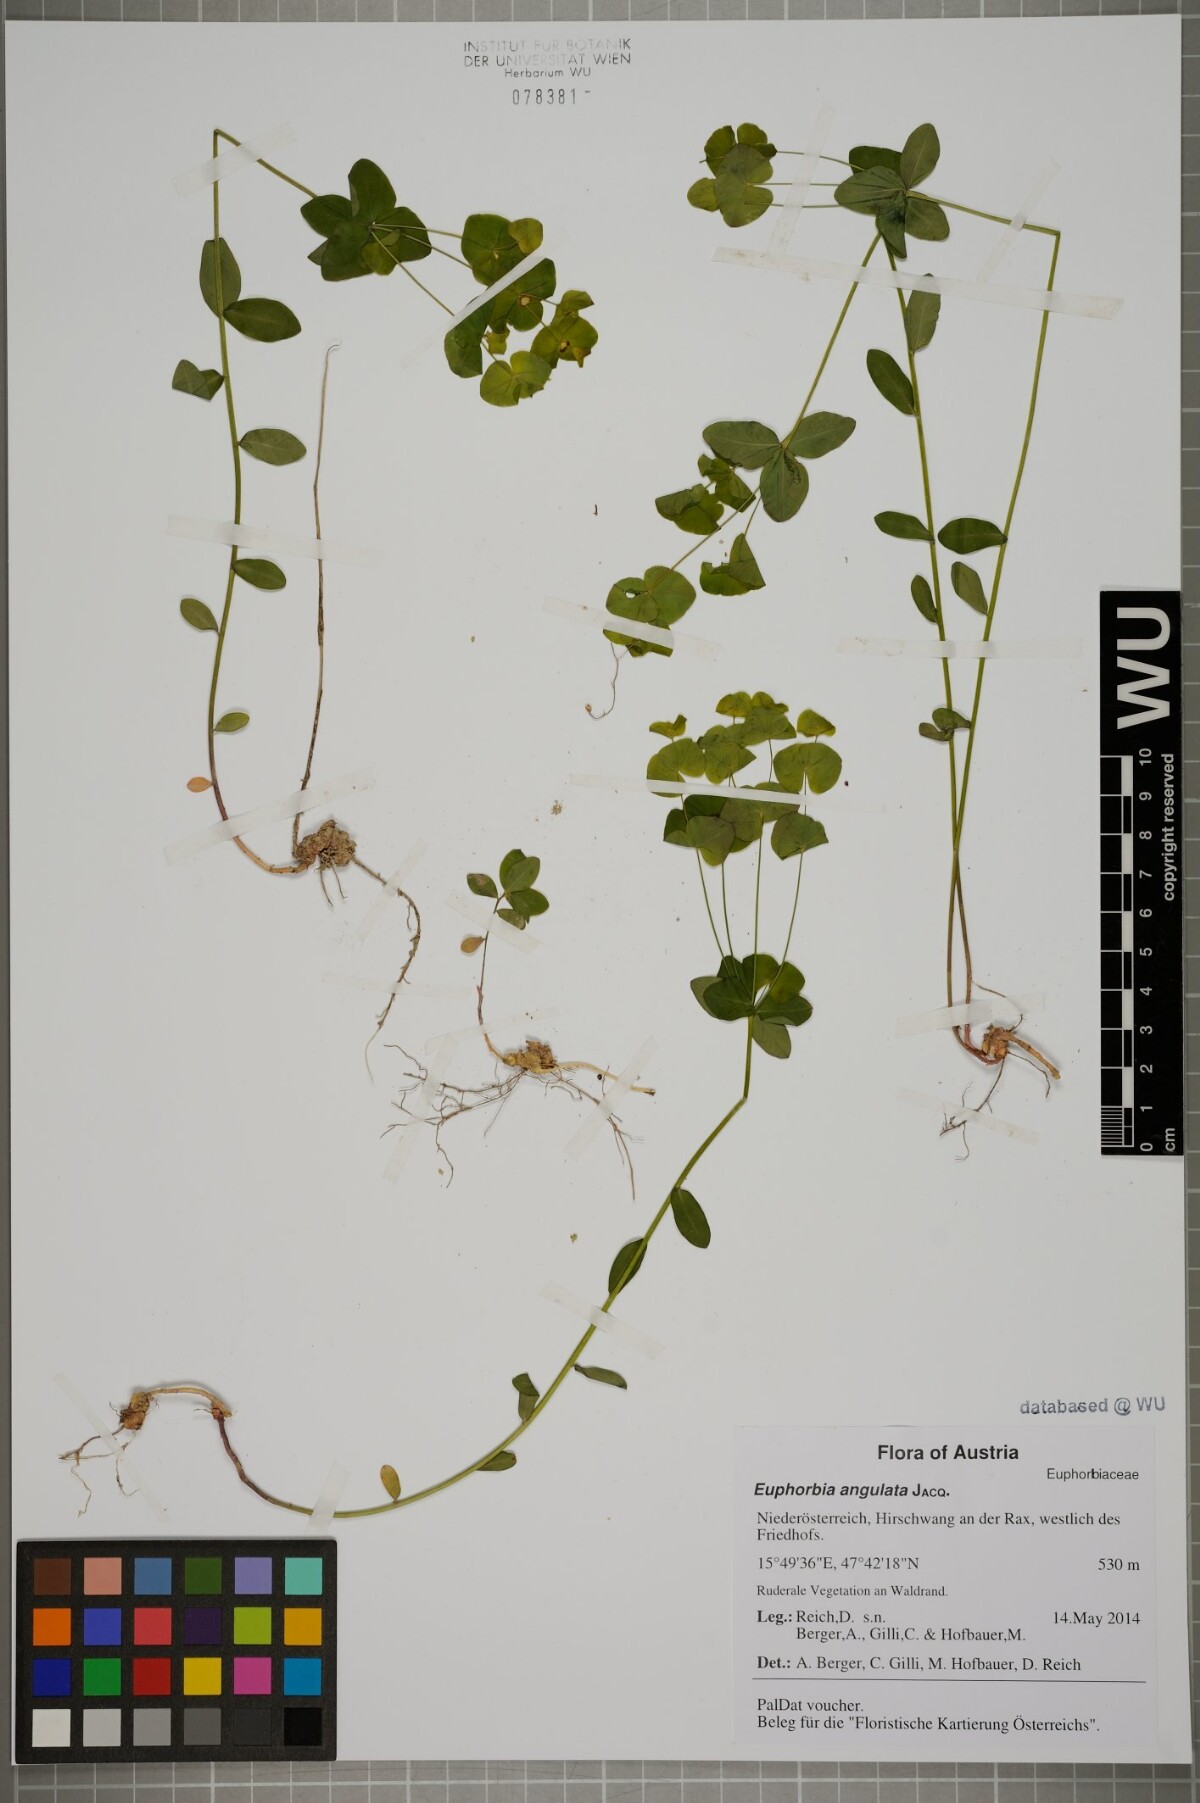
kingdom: Plantae
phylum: Tracheophyta
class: Magnoliopsida
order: Malpighiales
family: Euphorbiaceae
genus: Euphorbia
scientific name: Euphorbia angulata
